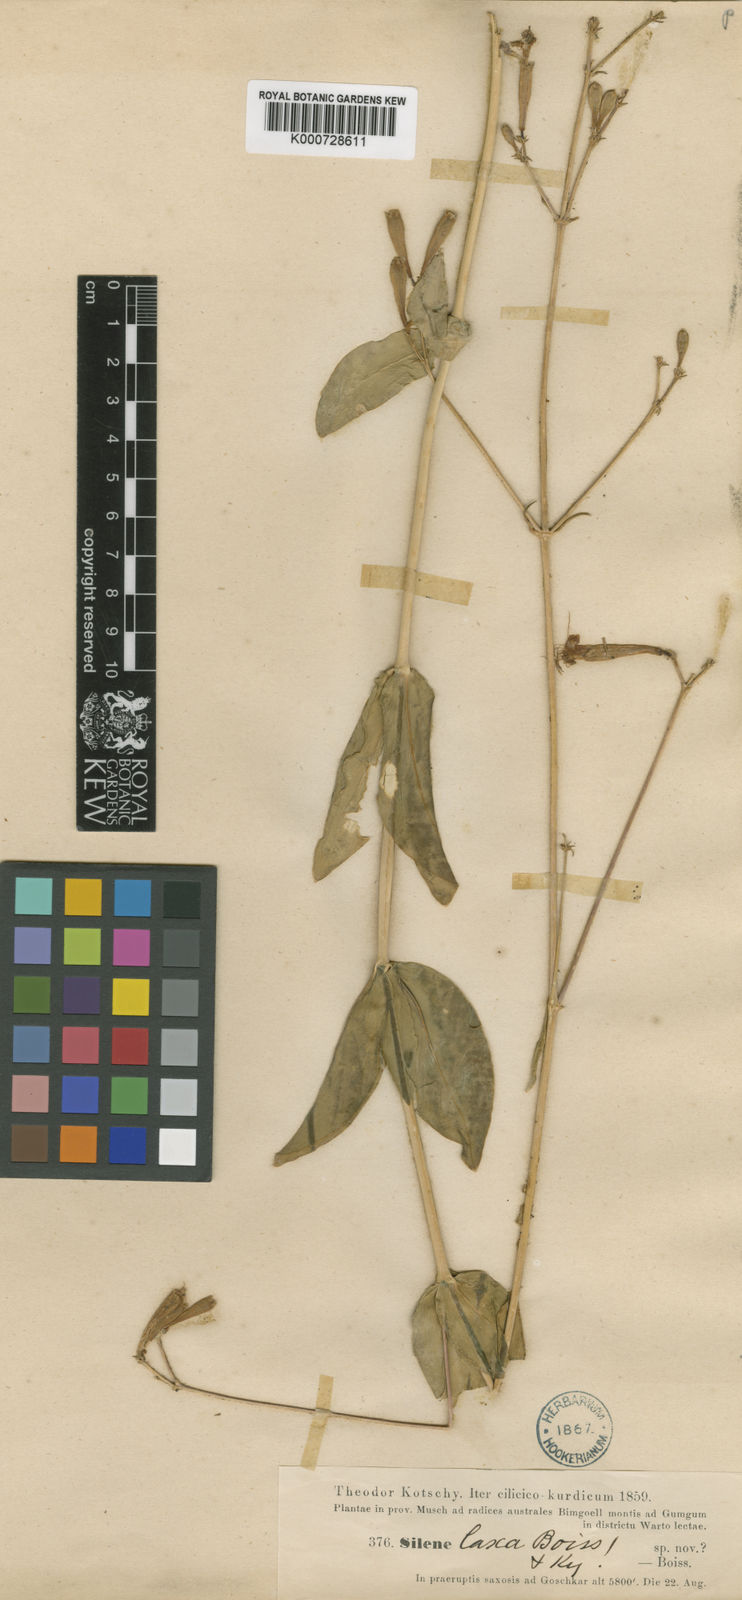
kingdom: Plantae
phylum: Tracheophyta
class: Magnoliopsida
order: Caryophyllales
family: Caryophyllaceae
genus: Silene
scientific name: Silene laxa
